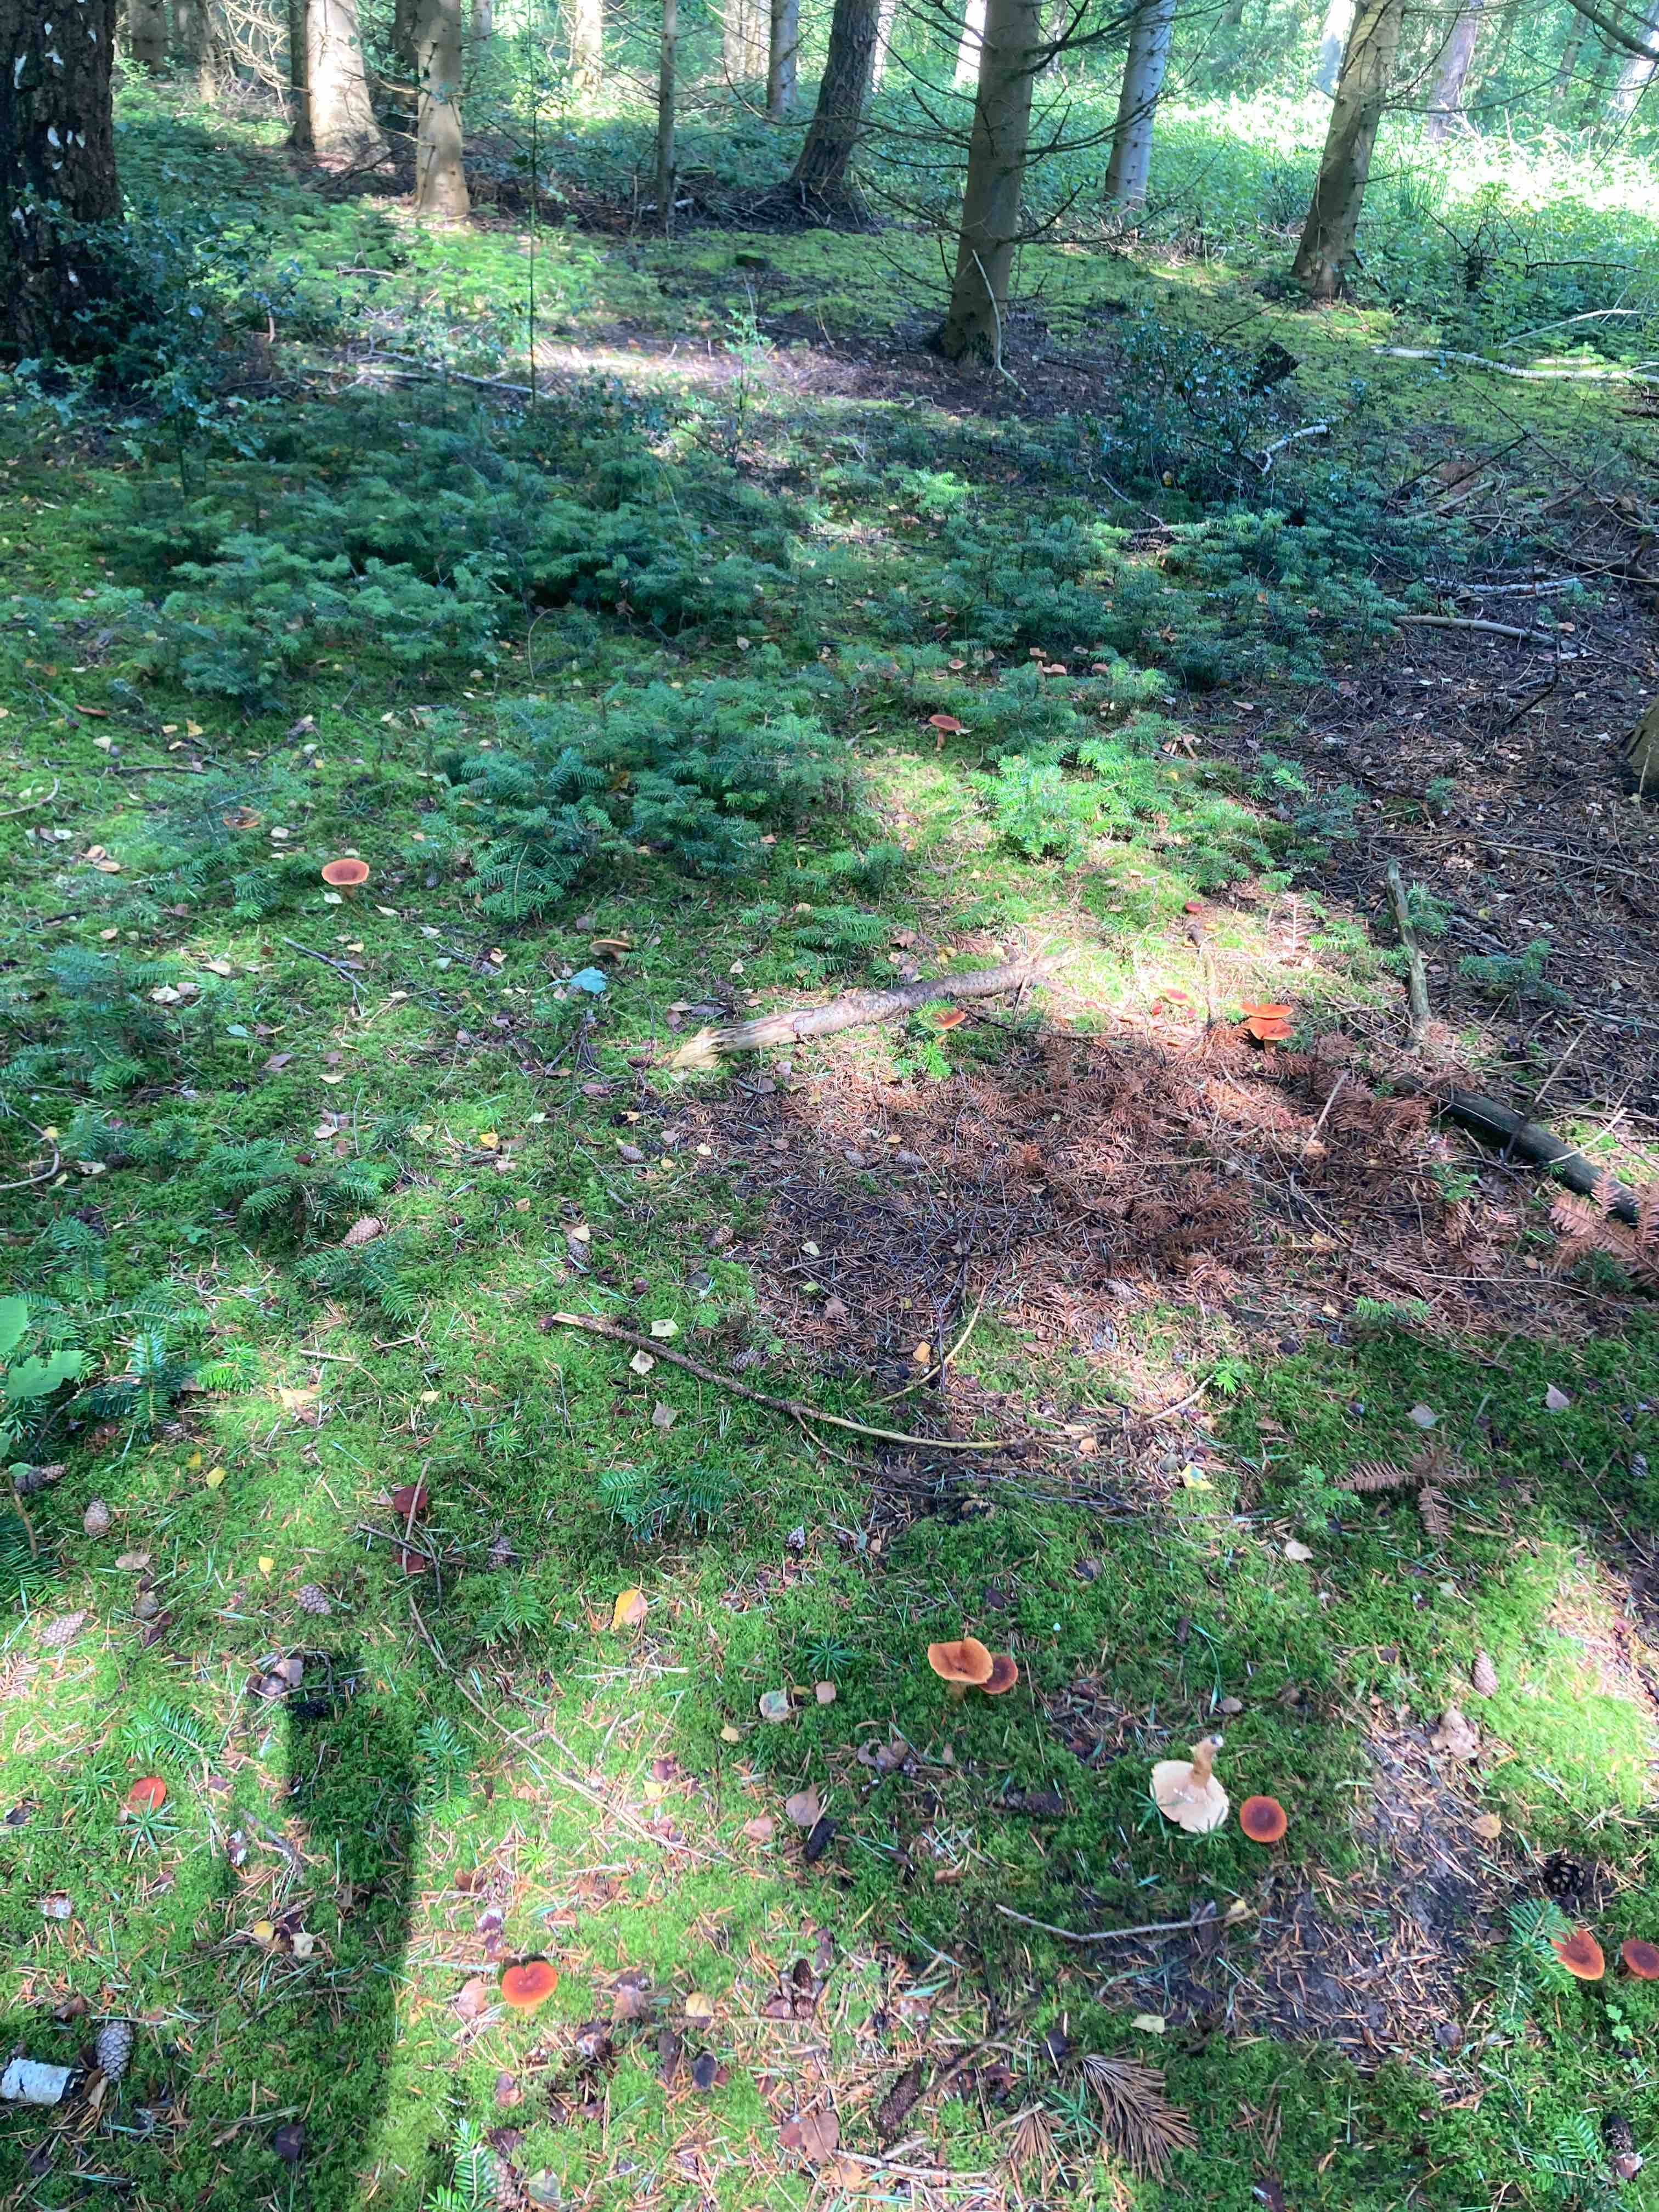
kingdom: Fungi
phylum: Basidiomycota
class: Agaricomycetes
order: Russulales
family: Russulaceae
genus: Lactarius
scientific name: Lactarius
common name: mælkehat
